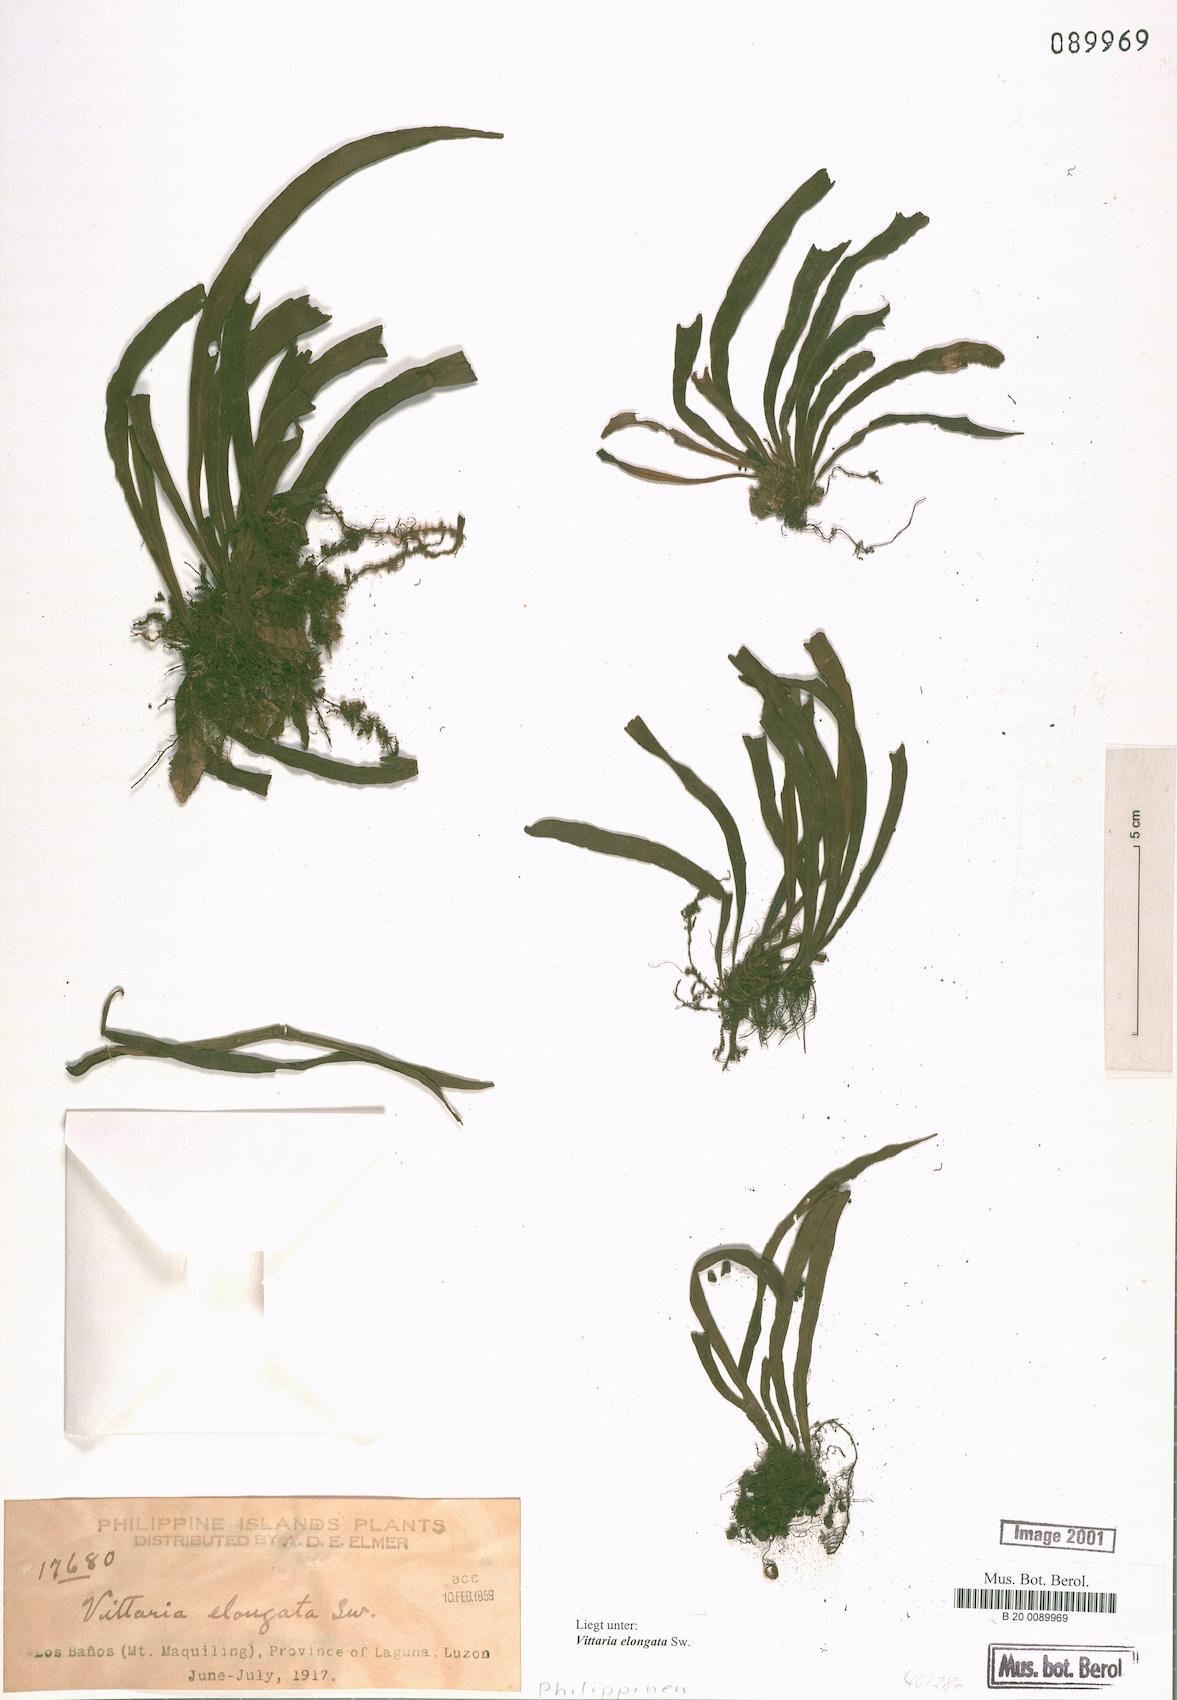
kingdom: Plantae
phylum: Tracheophyta
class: Polypodiopsida
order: Polypodiales
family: Pteridaceae
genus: Haplopteris
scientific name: Haplopteris elongata
